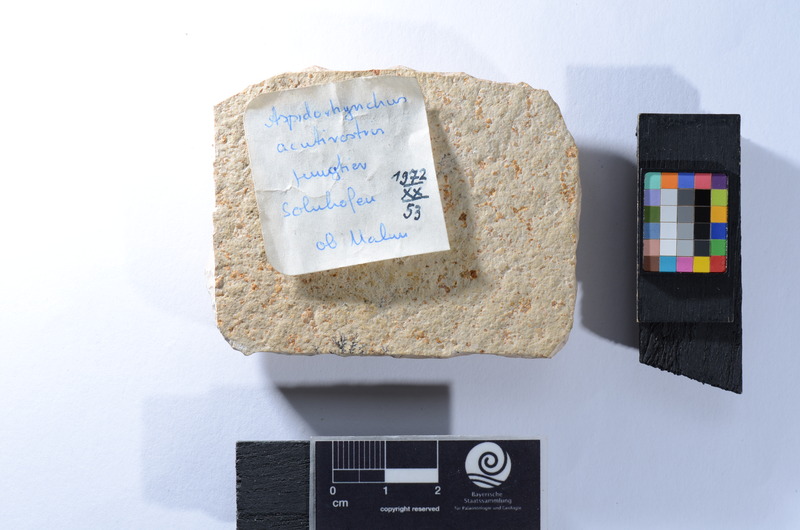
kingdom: Animalia
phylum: Chordata
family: Aspidorhynchidae
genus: Aspidorhynchus
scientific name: Aspidorhynchus acutirostris
